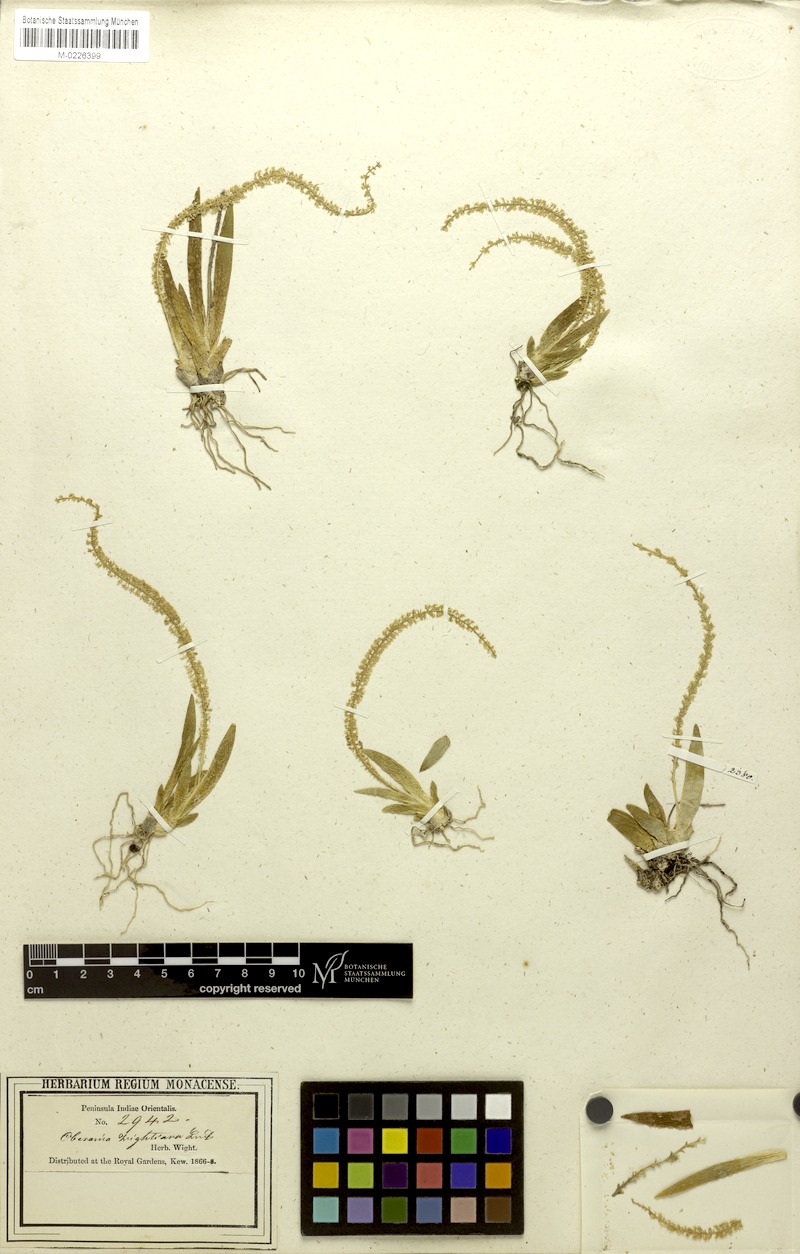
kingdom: Plantae
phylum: Tracheophyta
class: Liliopsida
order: Asparagales
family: Orchidaceae
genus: Oberonia
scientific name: Oberonia wightiana
